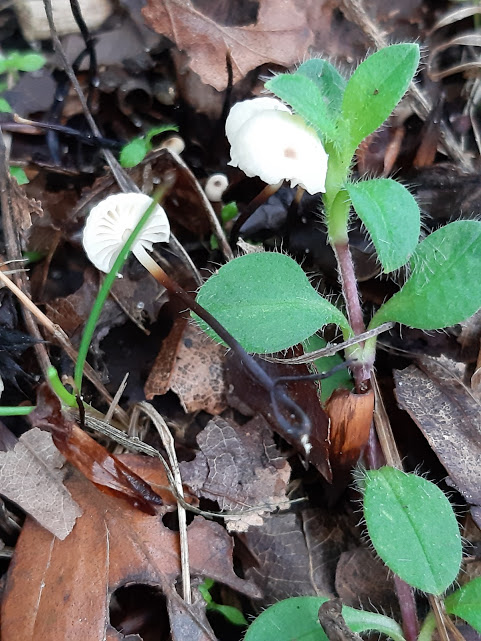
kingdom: Fungi
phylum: Basidiomycota
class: Agaricomycetes
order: Agaricales
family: Marasmiaceae
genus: Marasmius
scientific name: Marasmius rotula
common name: hjul-bruskhat
